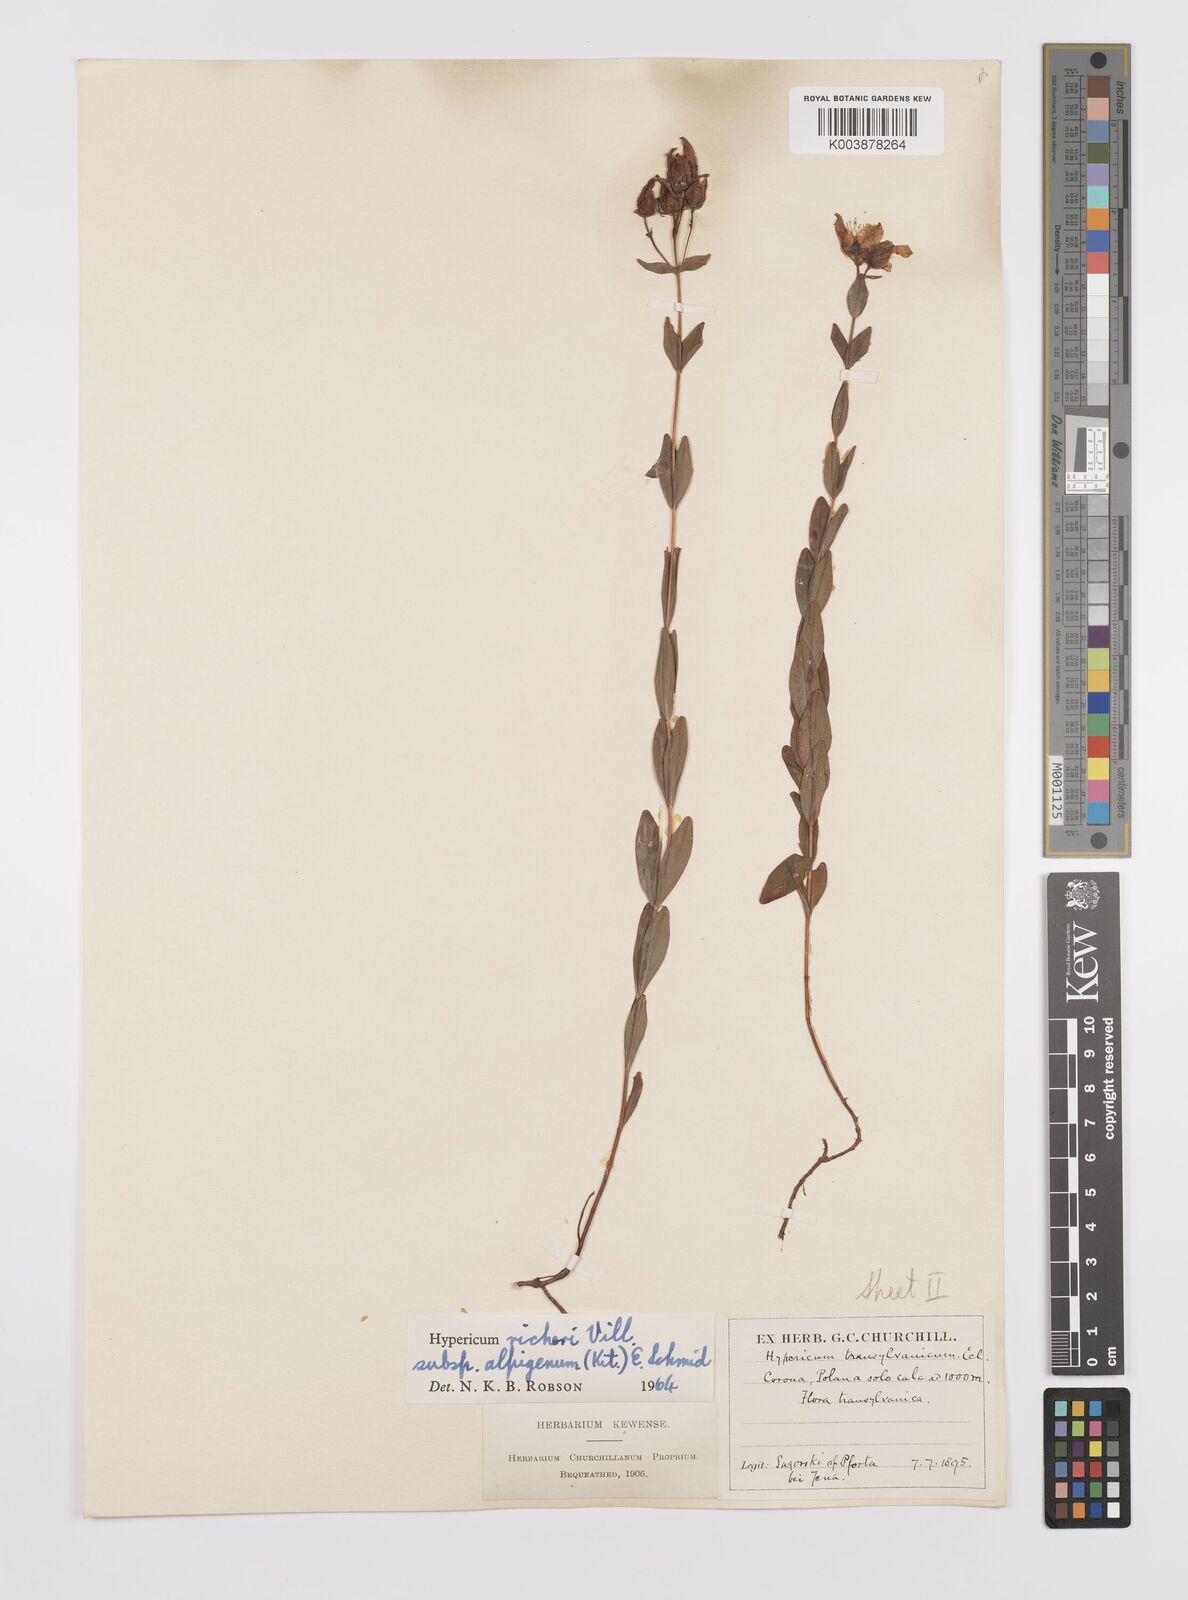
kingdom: Plantae
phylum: Tracheophyta
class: Magnoliopsida
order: Malpighiales
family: Hypericaceae
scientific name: Hypericaceae
